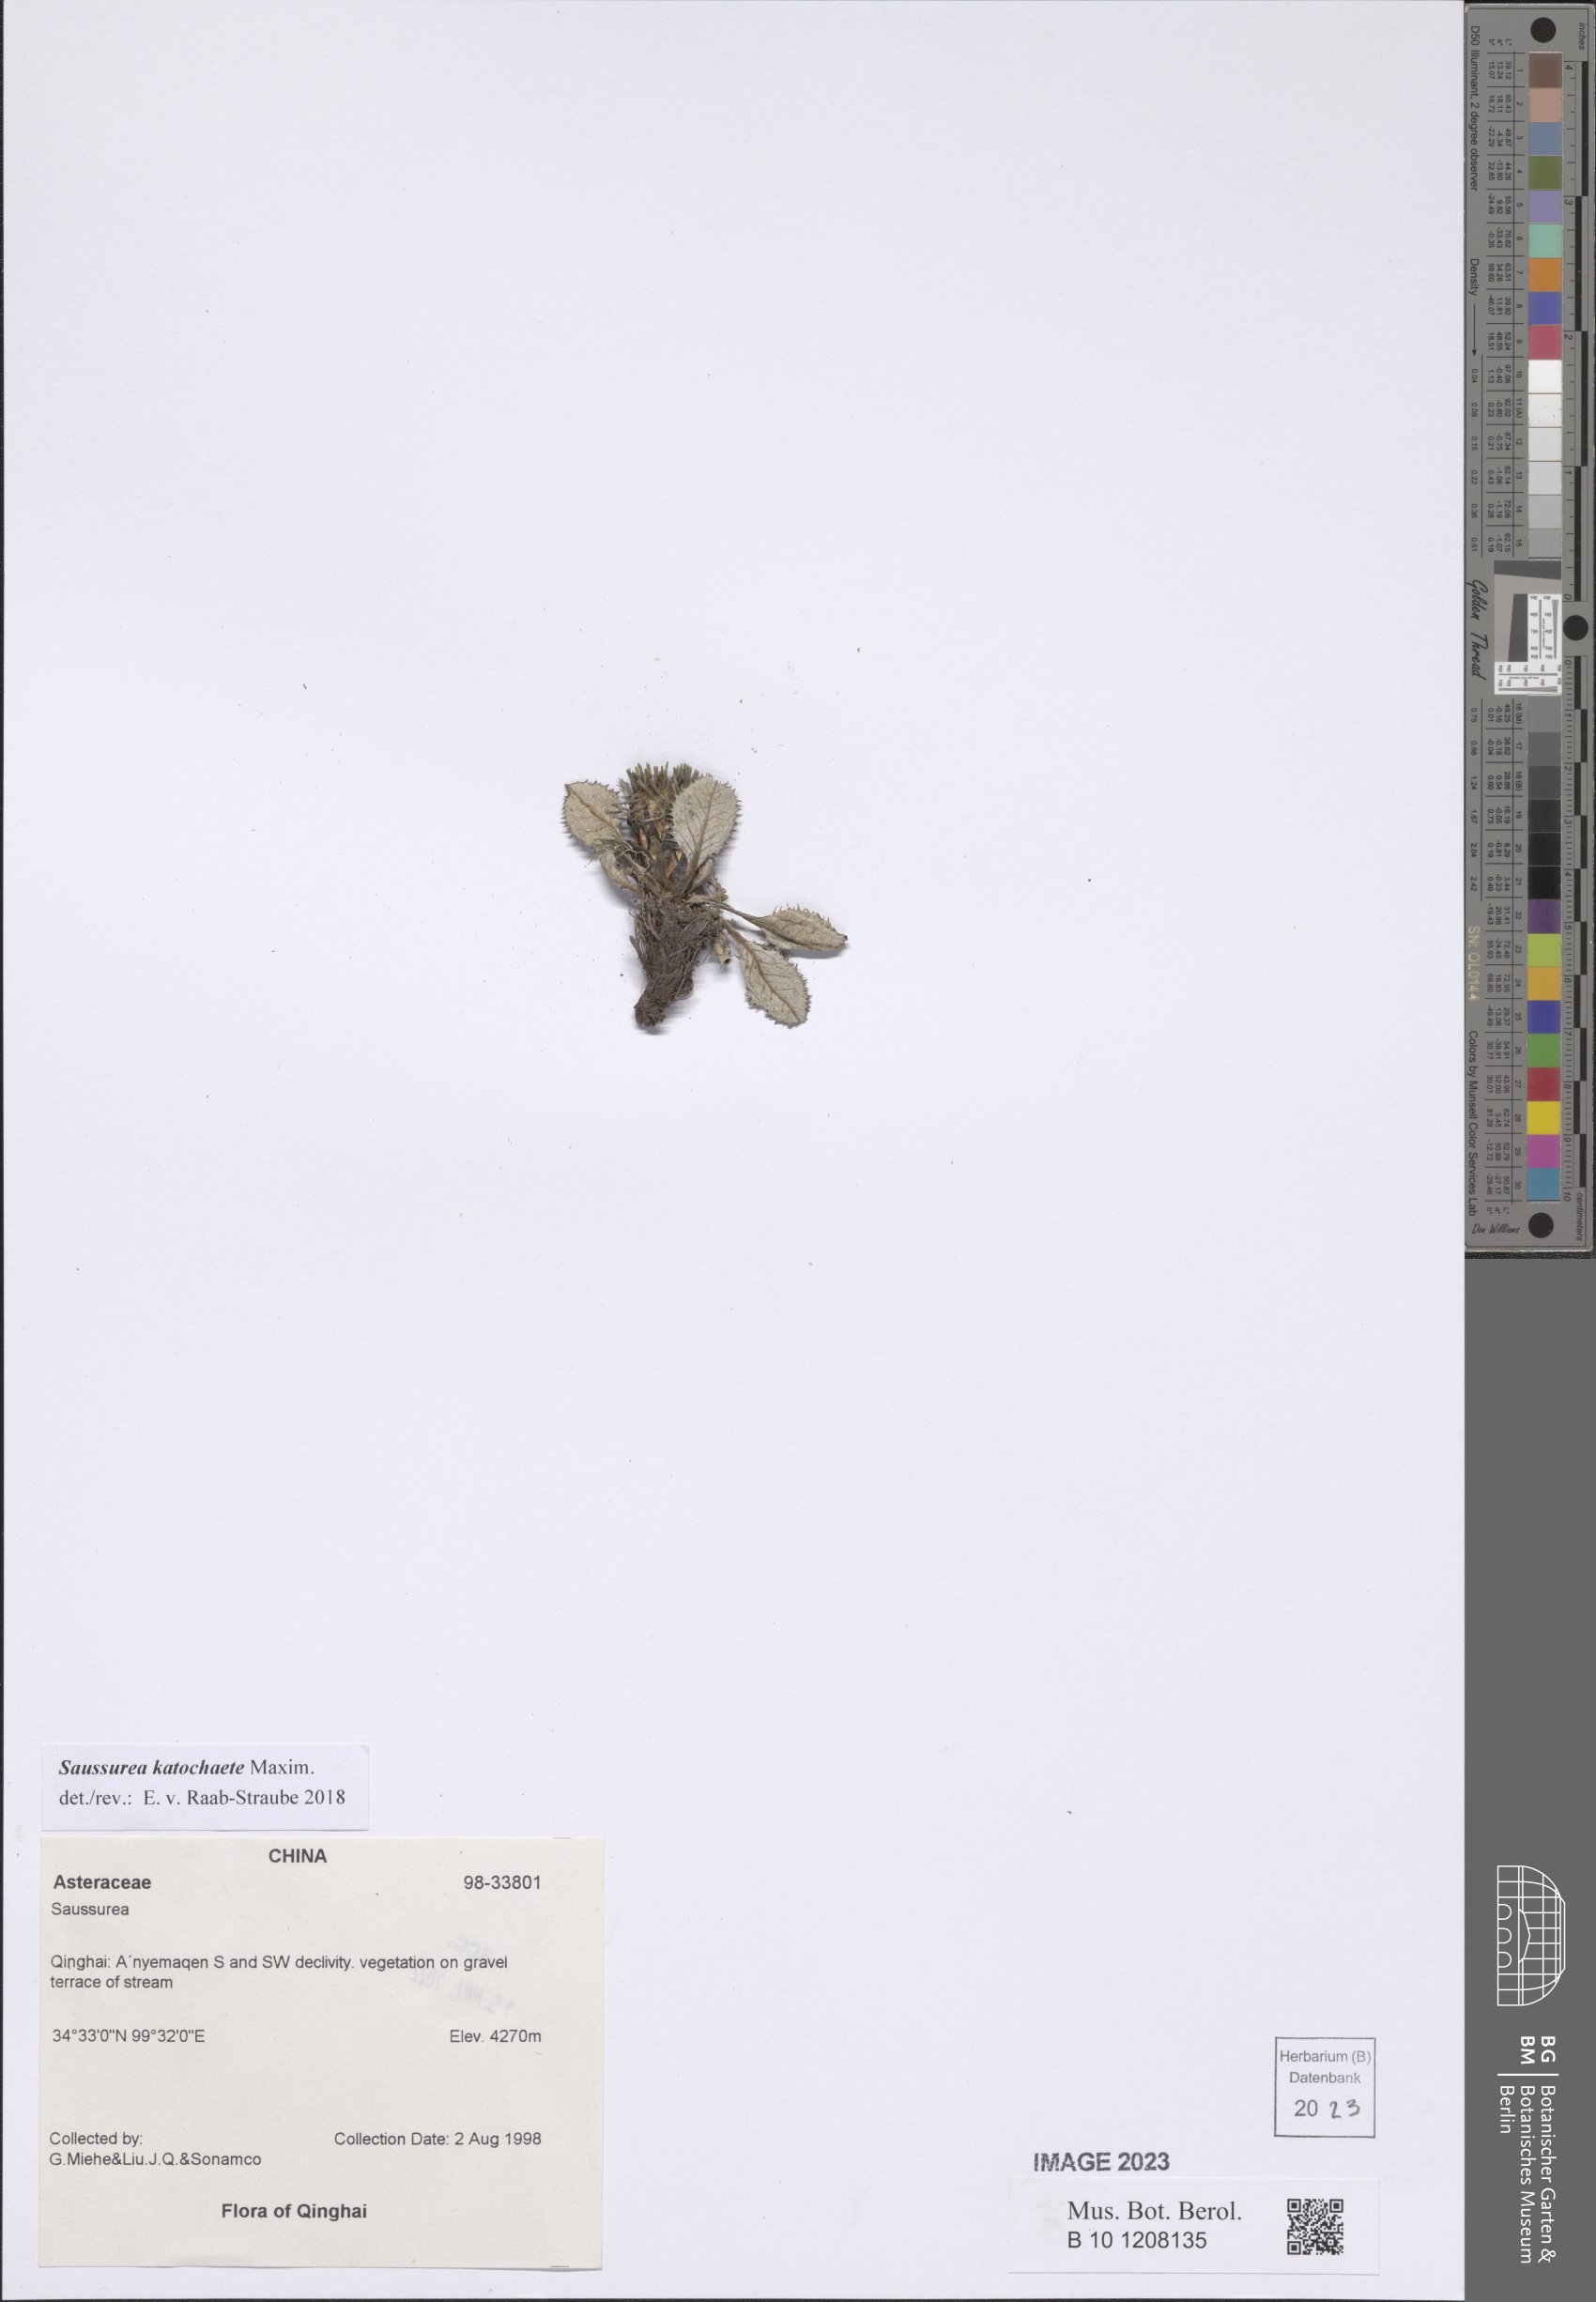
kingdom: Plantae
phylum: Tracheophyta
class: Magnoliopsida
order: Asterales
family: Asteraceae
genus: Saussurea
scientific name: Saussurea katochaete
